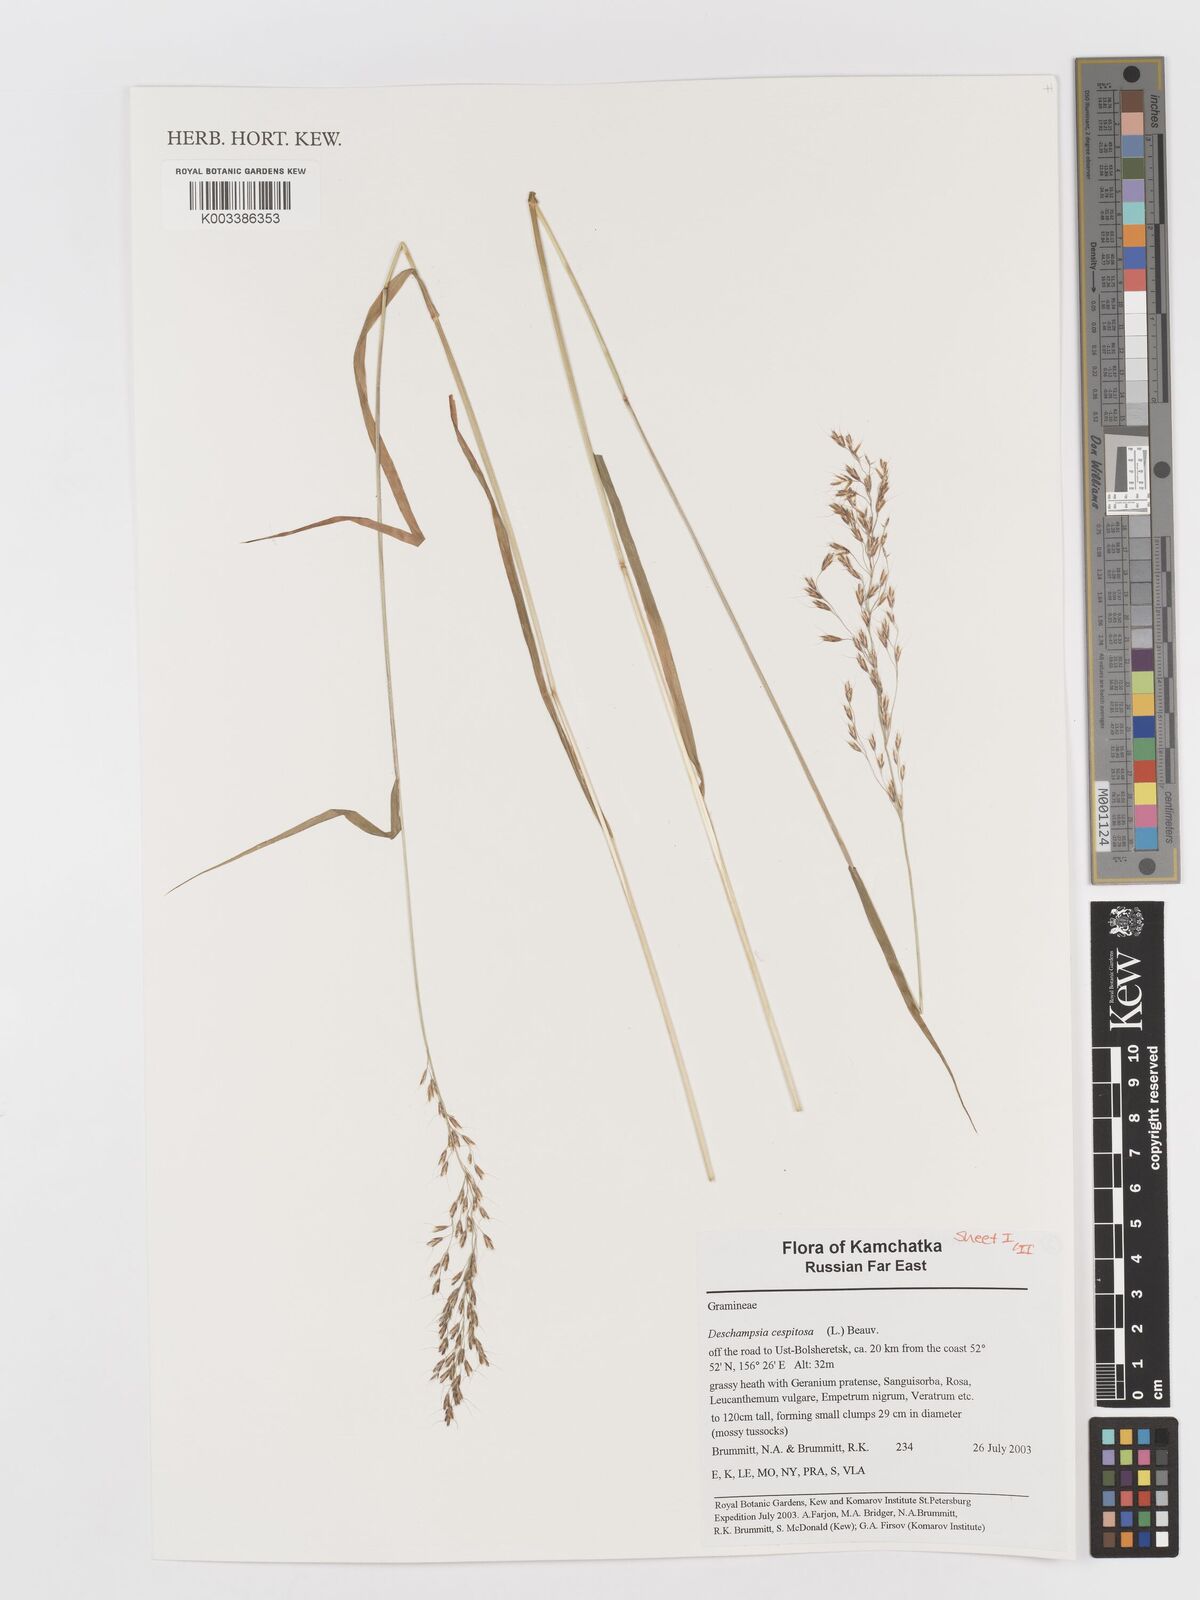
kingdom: Plantae
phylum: Tracheophyta
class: Liliopsida
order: Poales
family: Poaceae
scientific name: Poaceae
